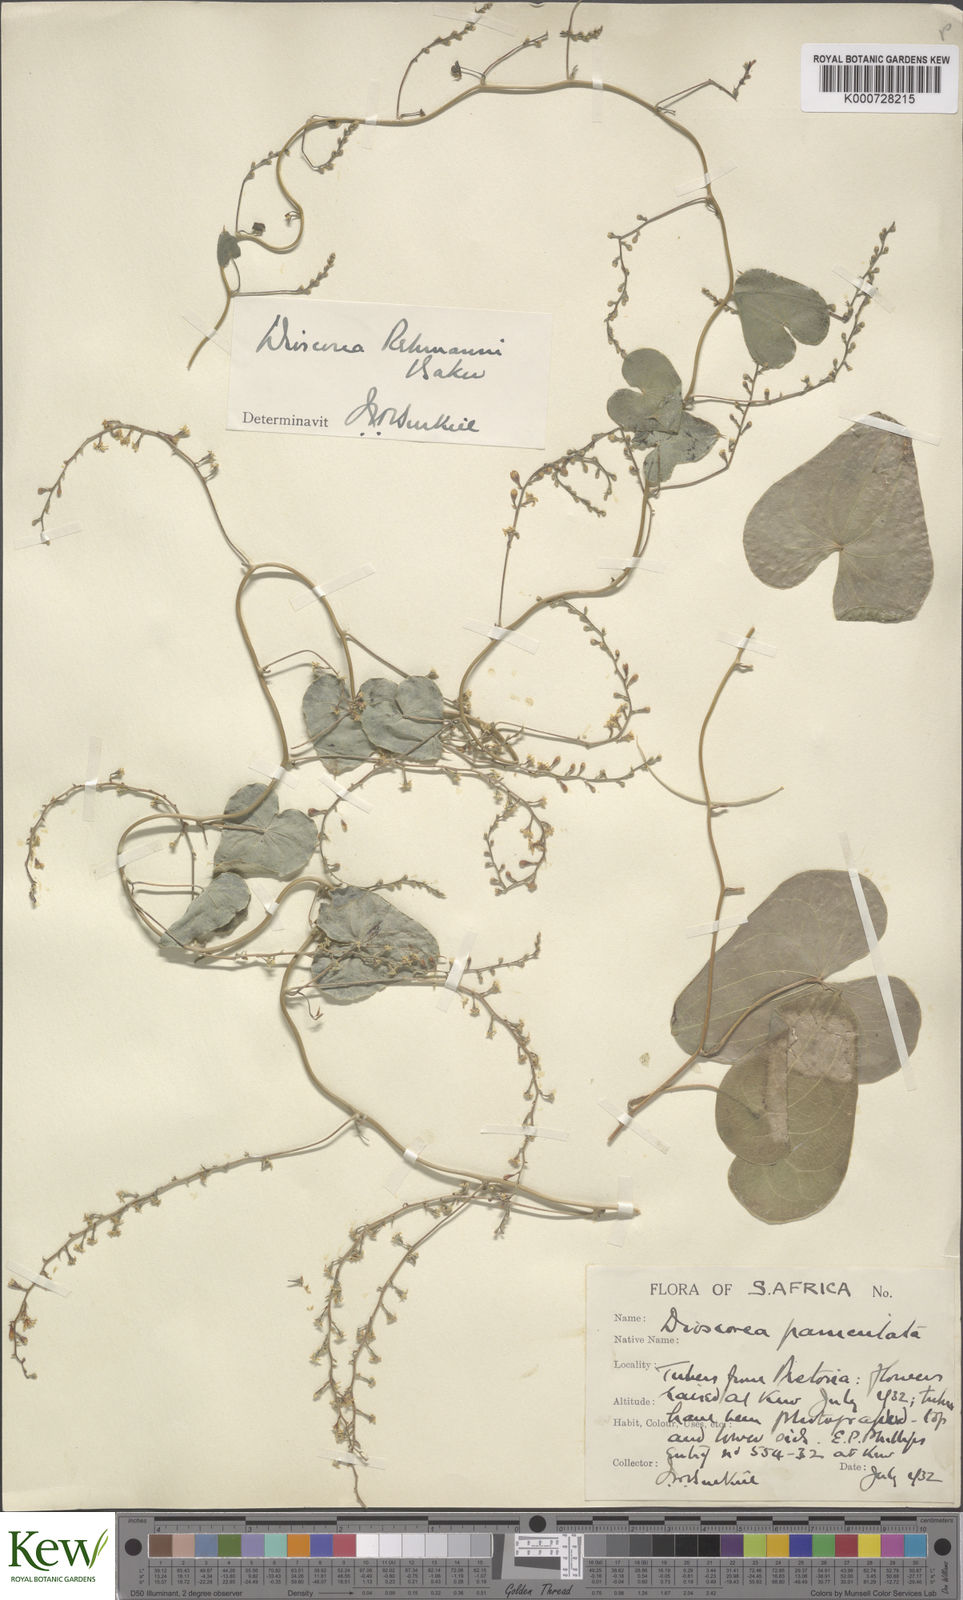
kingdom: Plantae
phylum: Tracheophyta
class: Liliopsida
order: Dioscoreales
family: Dioscoreaceae
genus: Dioscorea
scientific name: Dioscorea sylvatica
